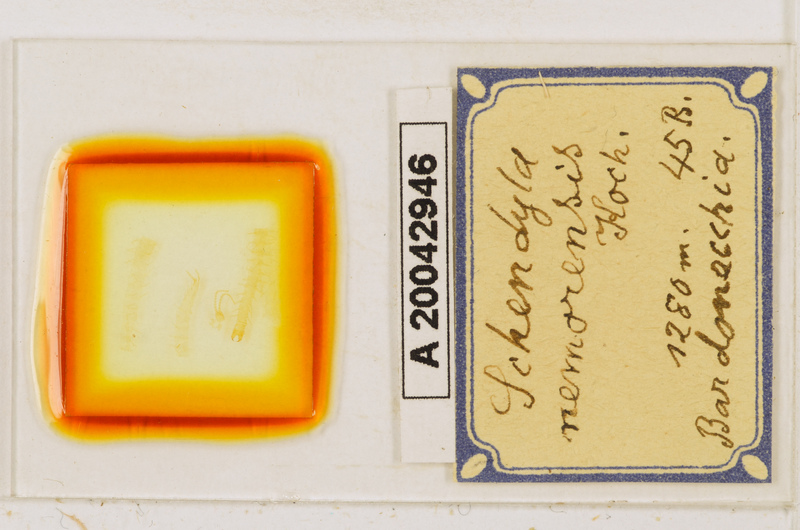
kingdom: Animalia
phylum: Arthropoda
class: Chilopoda
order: Geophilomorpha
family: Schendylidae
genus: Schendyla
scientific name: Schendyla nemorensis
